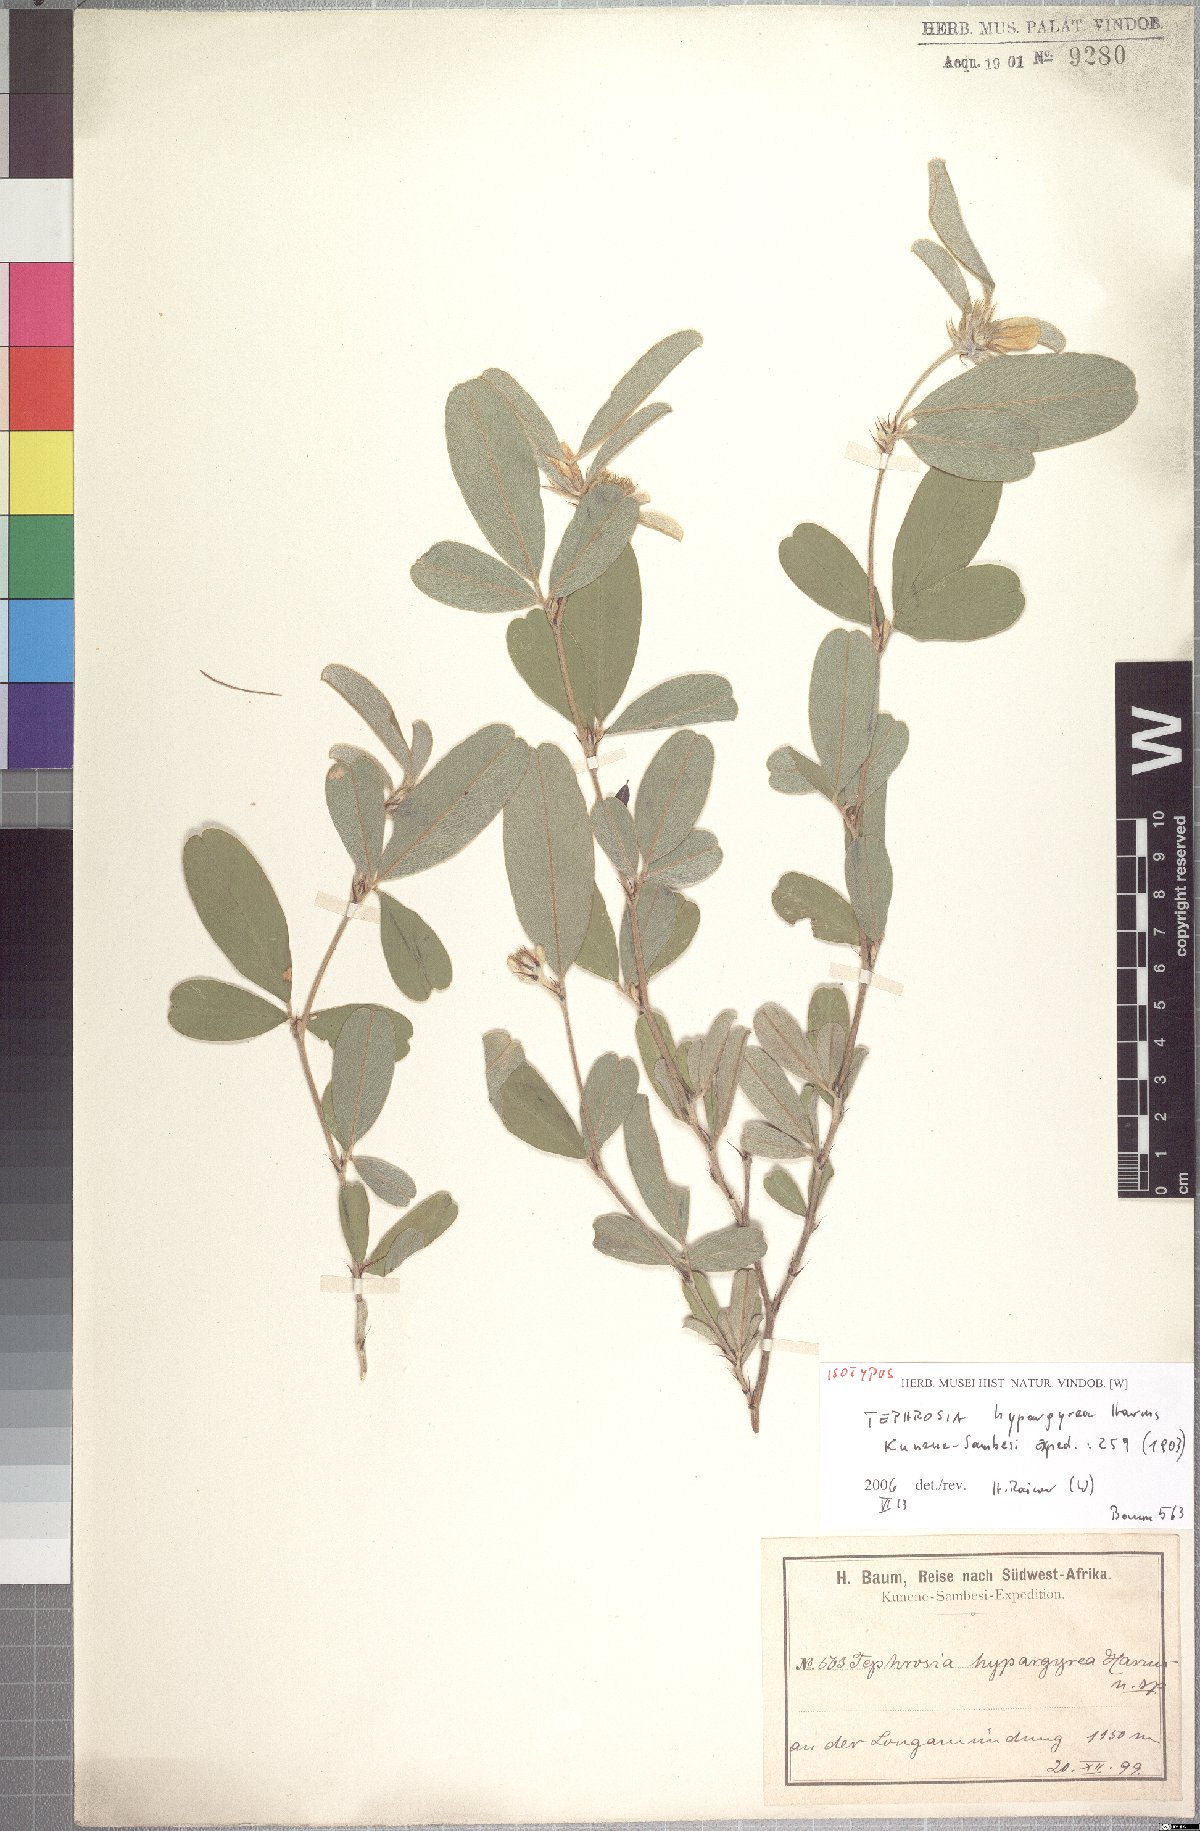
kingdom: Plantae
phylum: Tracheophyta
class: Magnoliopsida
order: Fabales
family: Fabaceae
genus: Tephrosia
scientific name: Tephrosia cephalantha
